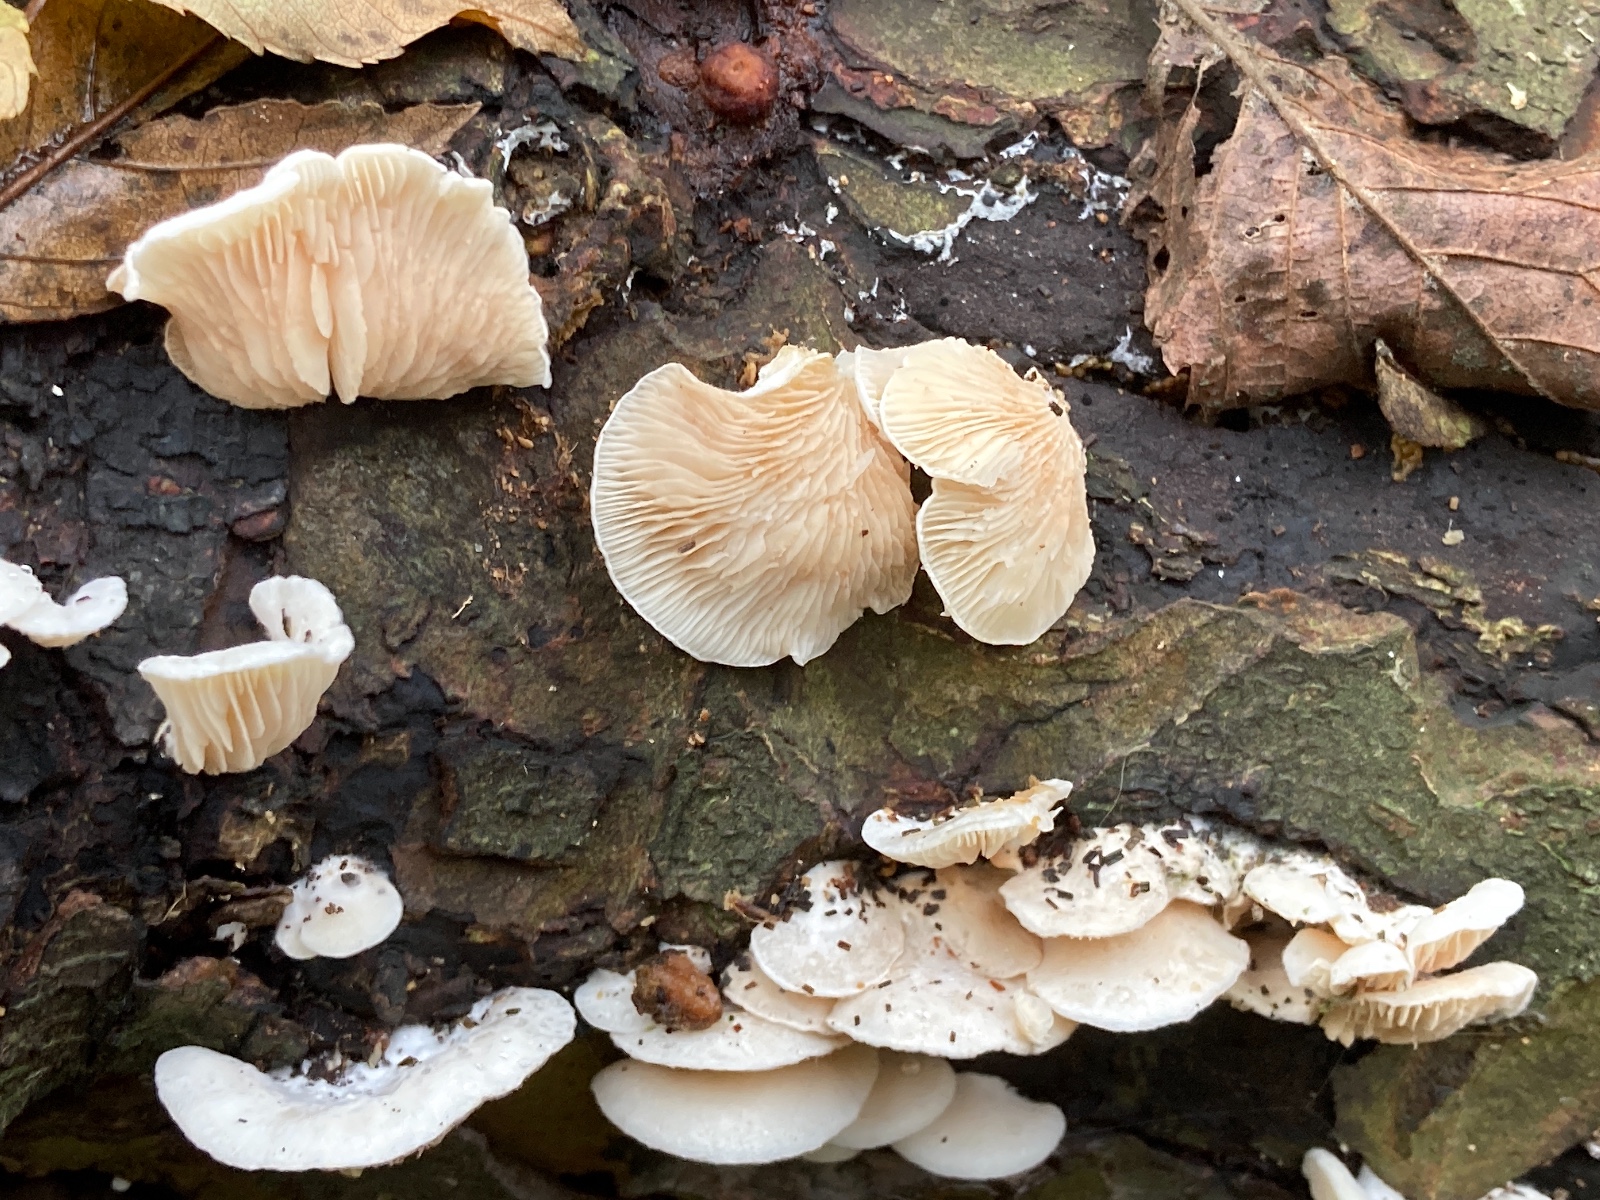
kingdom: Fungi
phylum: Basidiomycota
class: Agaricomycetes
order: Agaricales
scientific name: Agaricales
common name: champignonordenen
